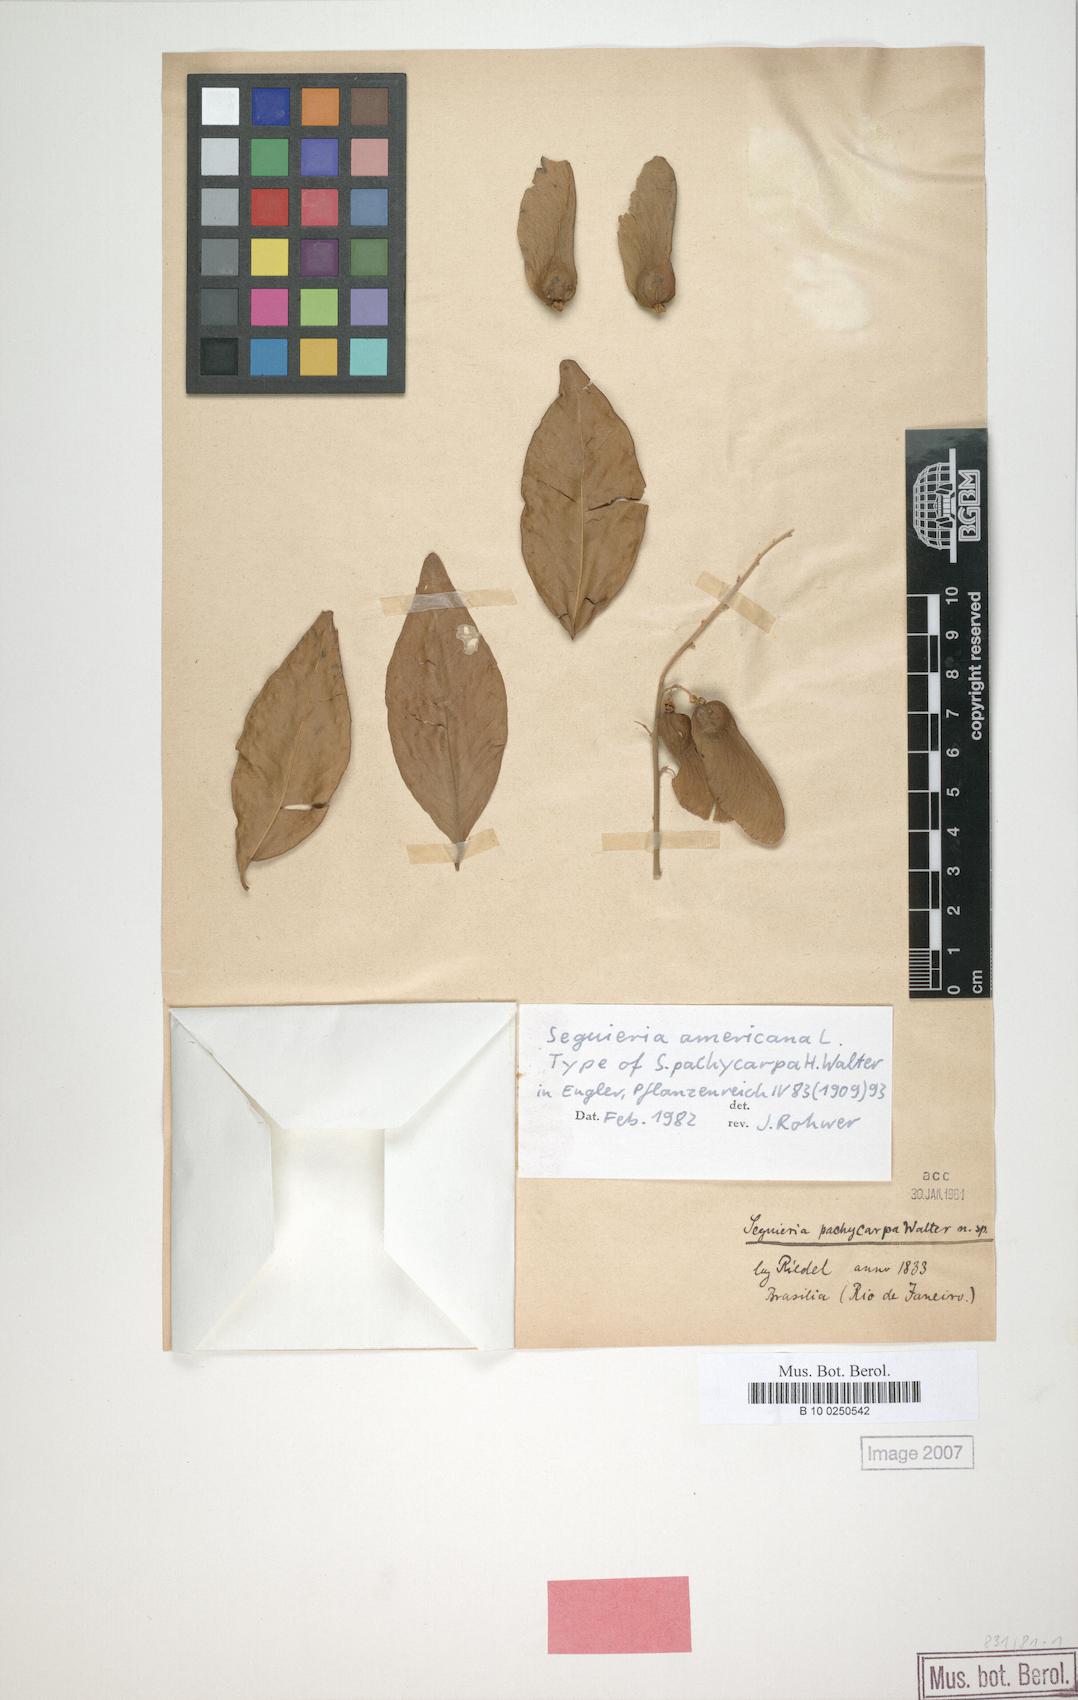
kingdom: Plantae
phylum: Tracheophyta
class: Magnoliopsida
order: Caryophyllales
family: Phytolaccaceae
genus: Seguieria
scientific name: Seguieria americana
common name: American seguieria
